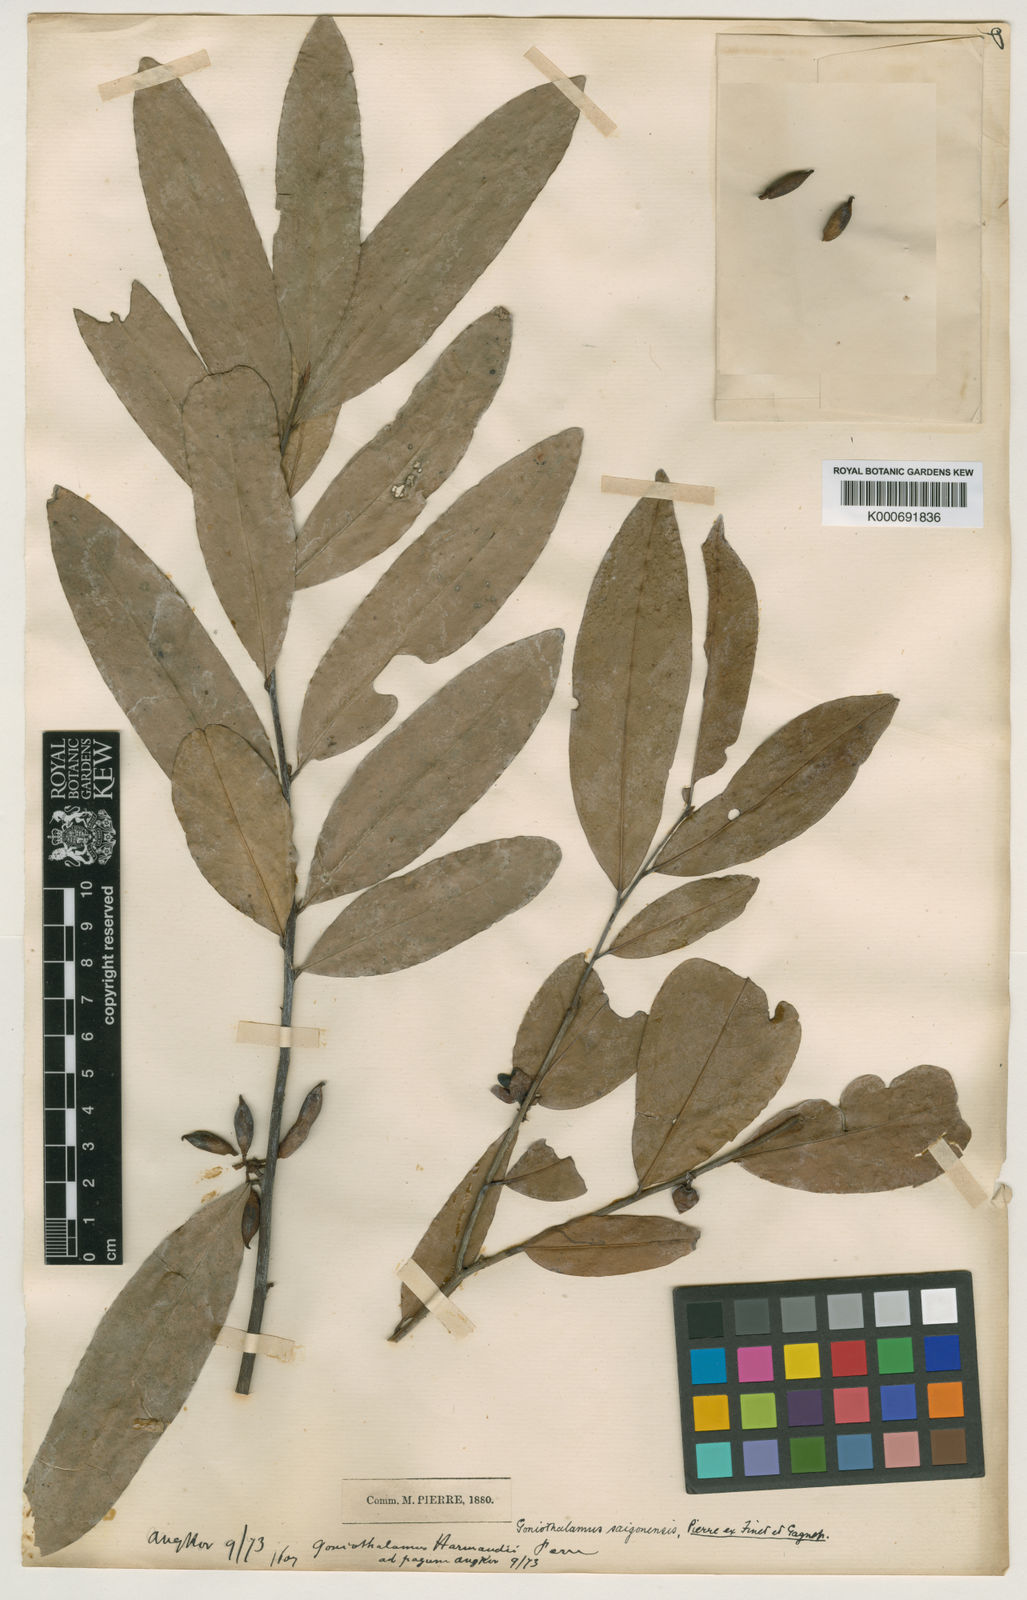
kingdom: Plantae
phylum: Tracheophyta
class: Magnoliopsida
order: Magnoliales
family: Annonaceae
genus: Goniothalamus
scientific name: Goniothalamus gabriacianus
